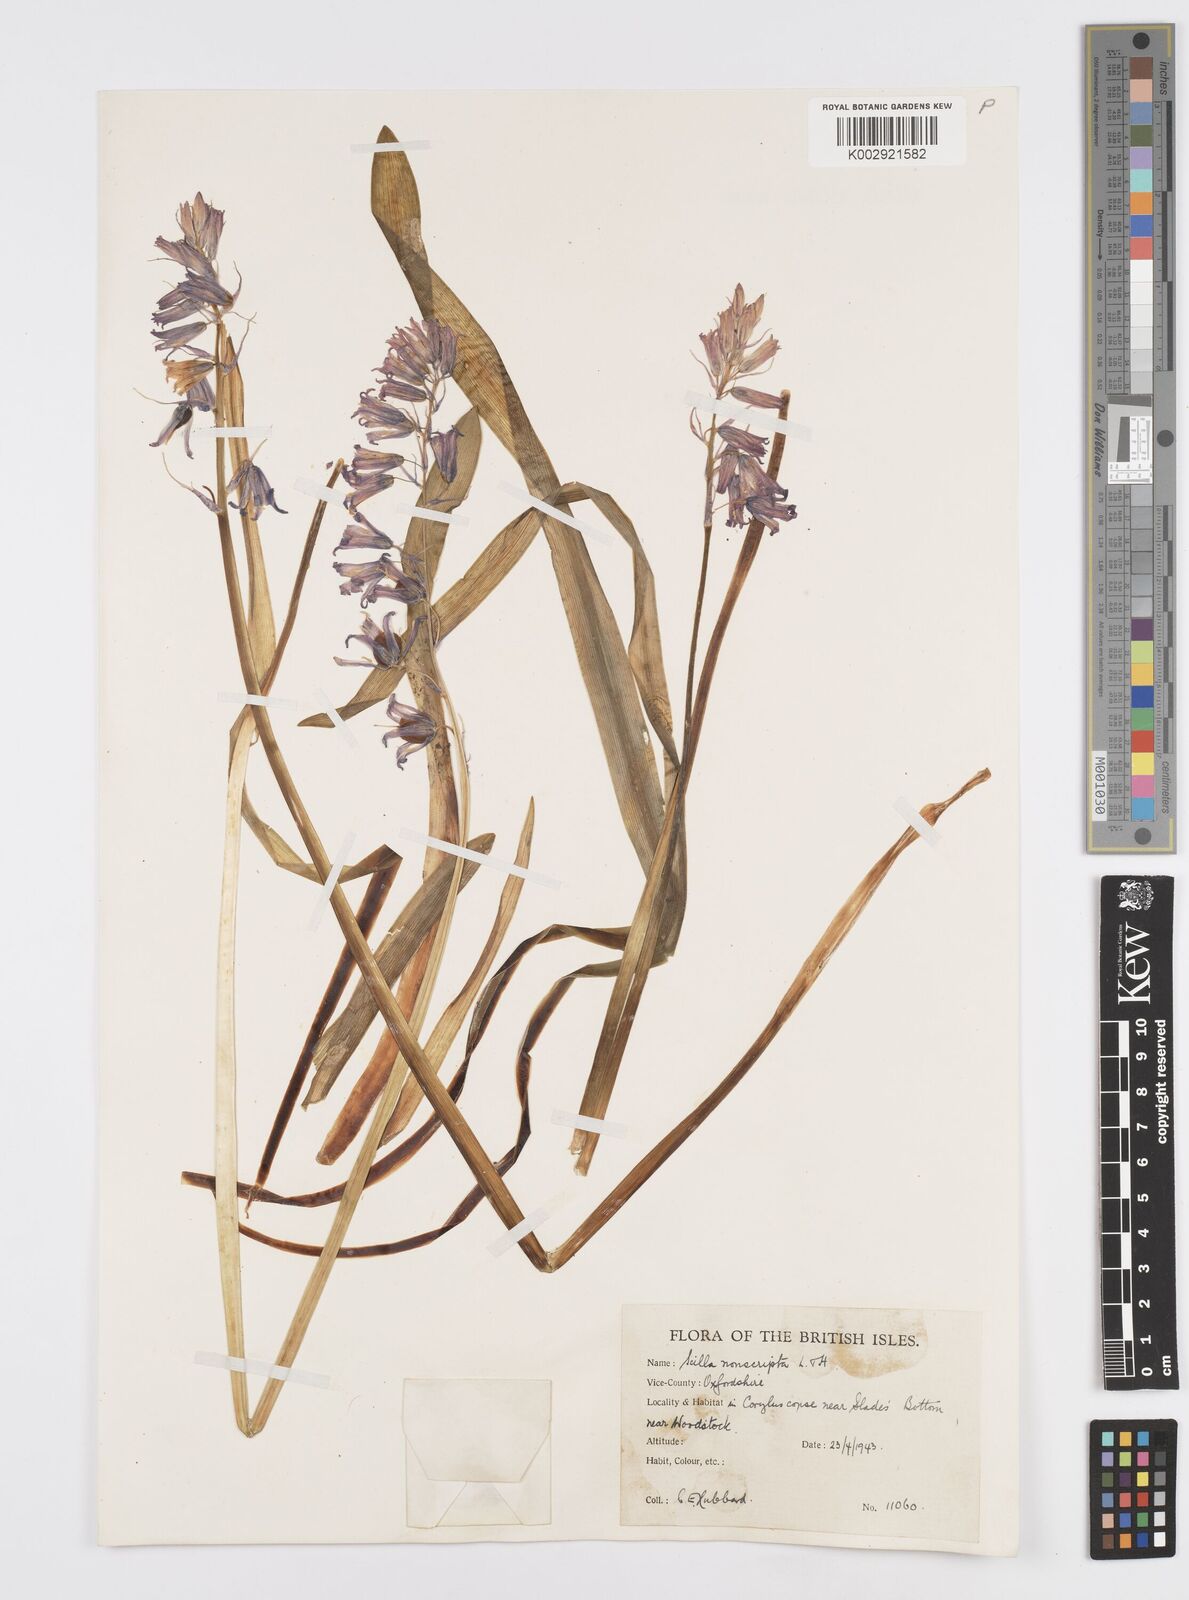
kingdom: Plantae
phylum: Tracheophyta
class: Liliopsida
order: Asparagales
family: Asparagaceae
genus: Hyacinthoides
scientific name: Hyacinthoides non-scripta
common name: Bluebell
